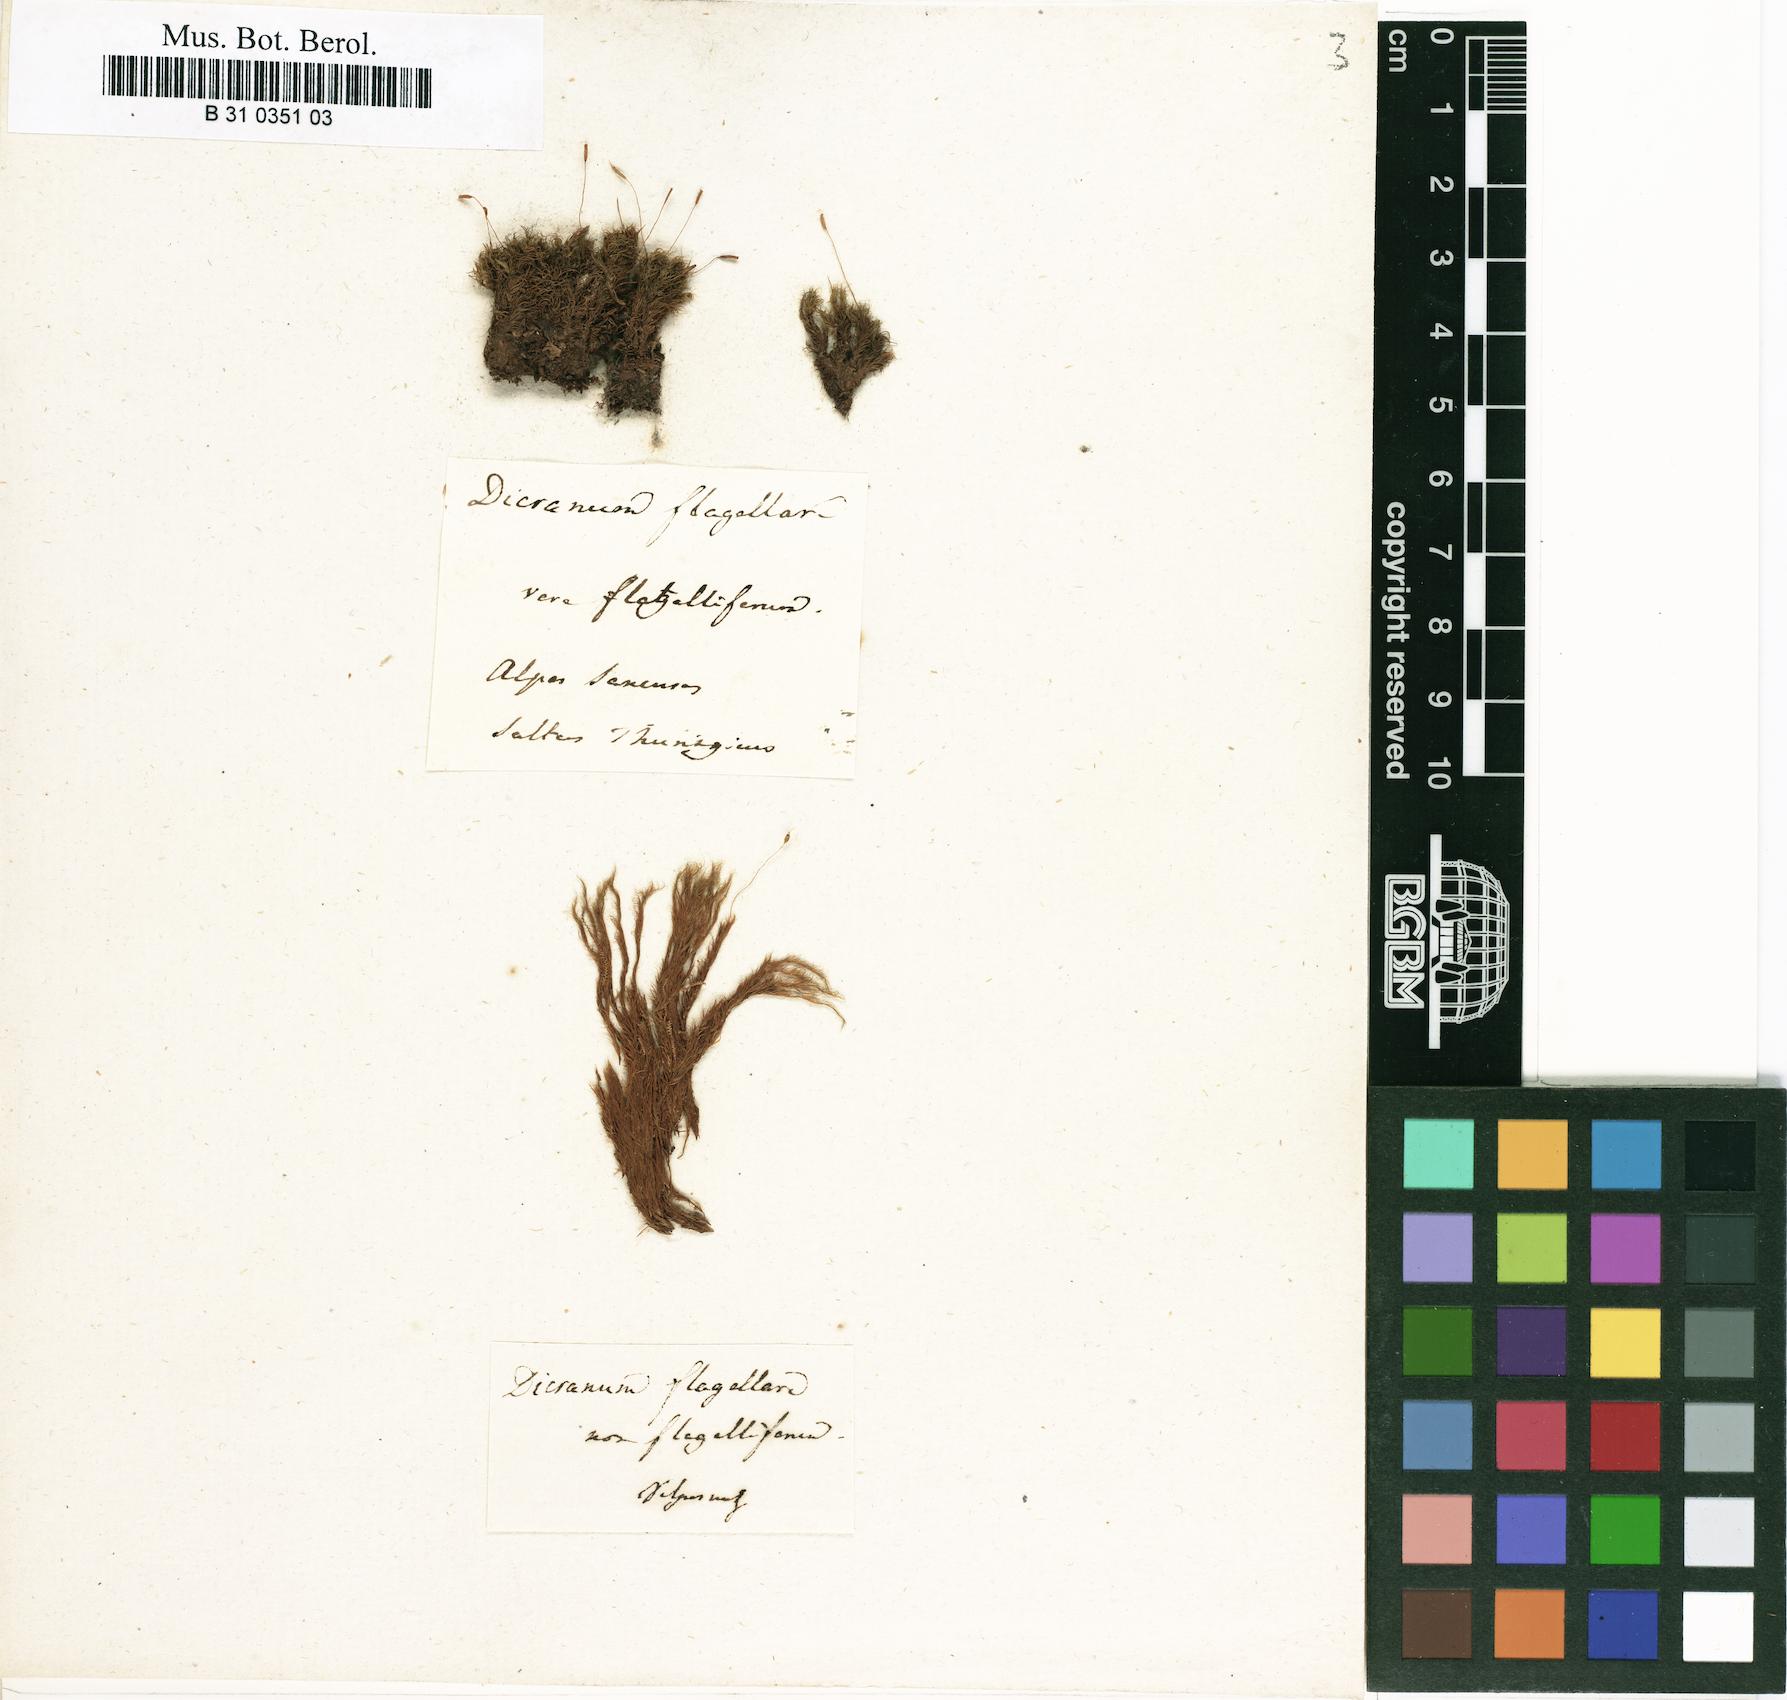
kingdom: Plantae
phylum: Bryophyta
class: Bryopsida
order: Dicranales
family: Dicranaceae
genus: Orthodicranum
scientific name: Orthodicranum flagellare
